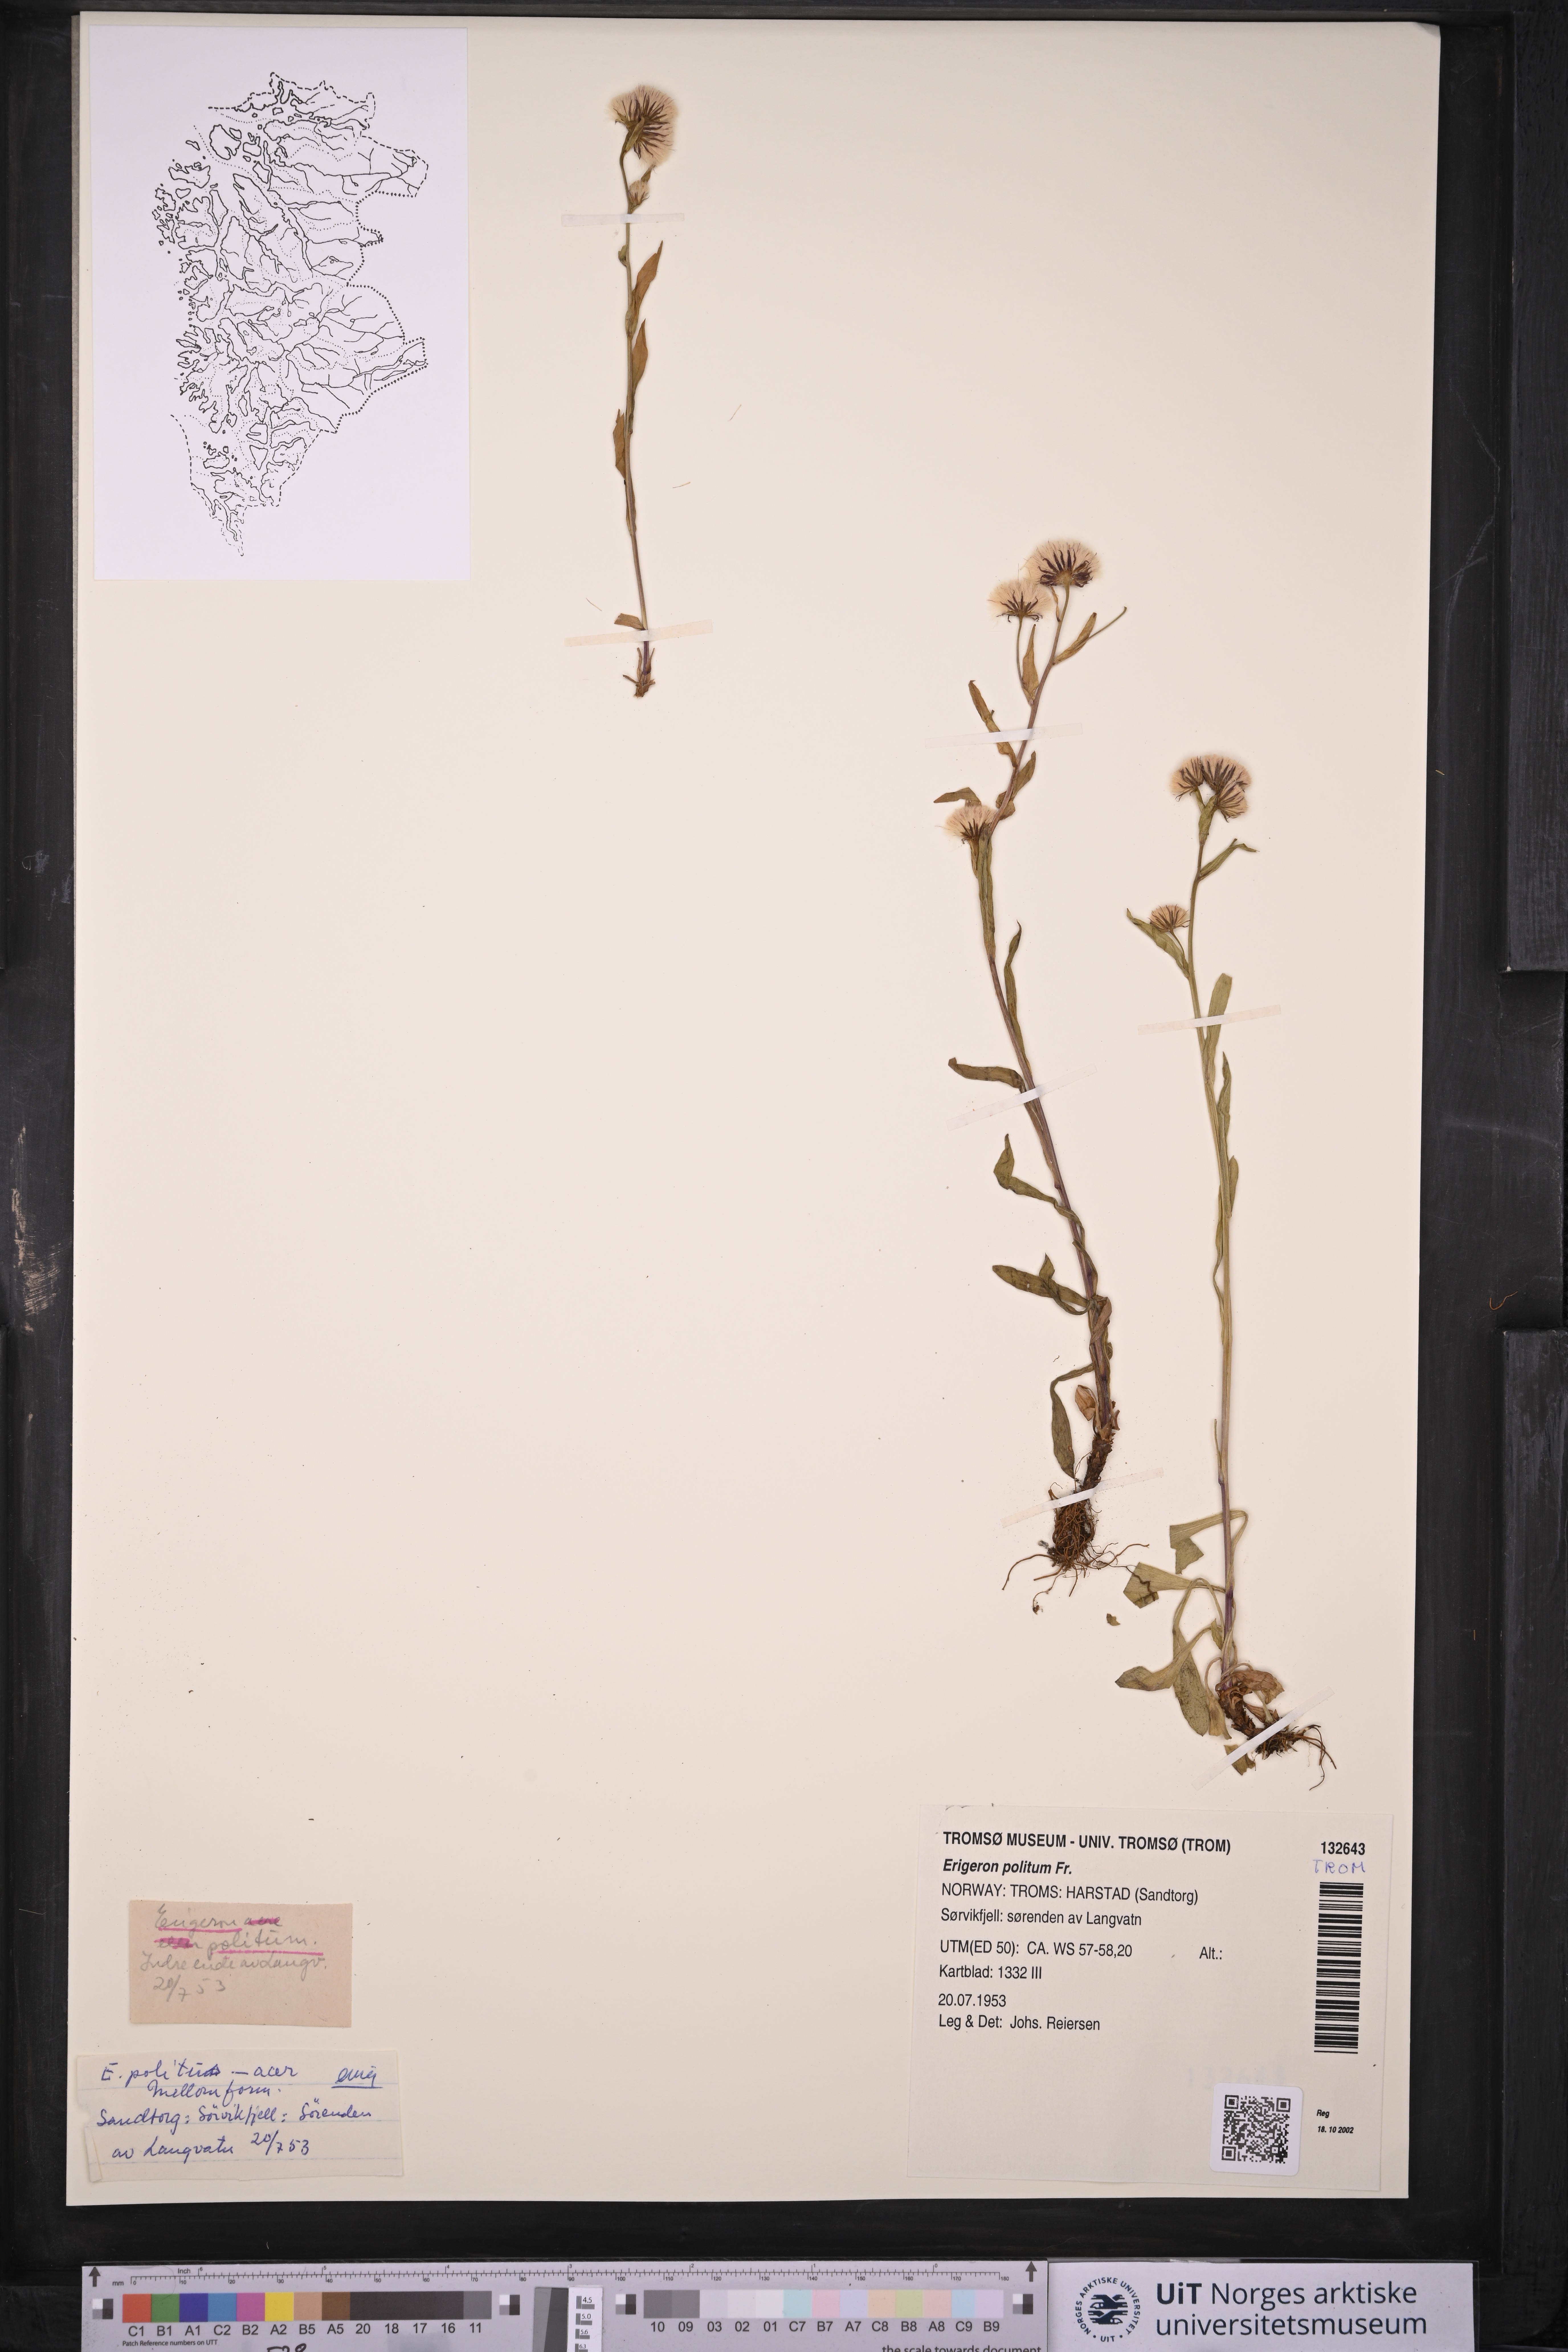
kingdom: Plantae
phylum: Tracheophyta
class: Magnoliopsida
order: Asterales
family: Asteraceae
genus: Erigeron
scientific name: Erigeron politus
